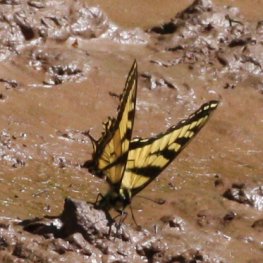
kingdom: Animalia
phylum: Arthropoda
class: Insecta
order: Lepidoptera
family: Papilionidae
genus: Pterourus
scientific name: Pterourus canadensis
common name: Canadian Tiger Swallowtail
